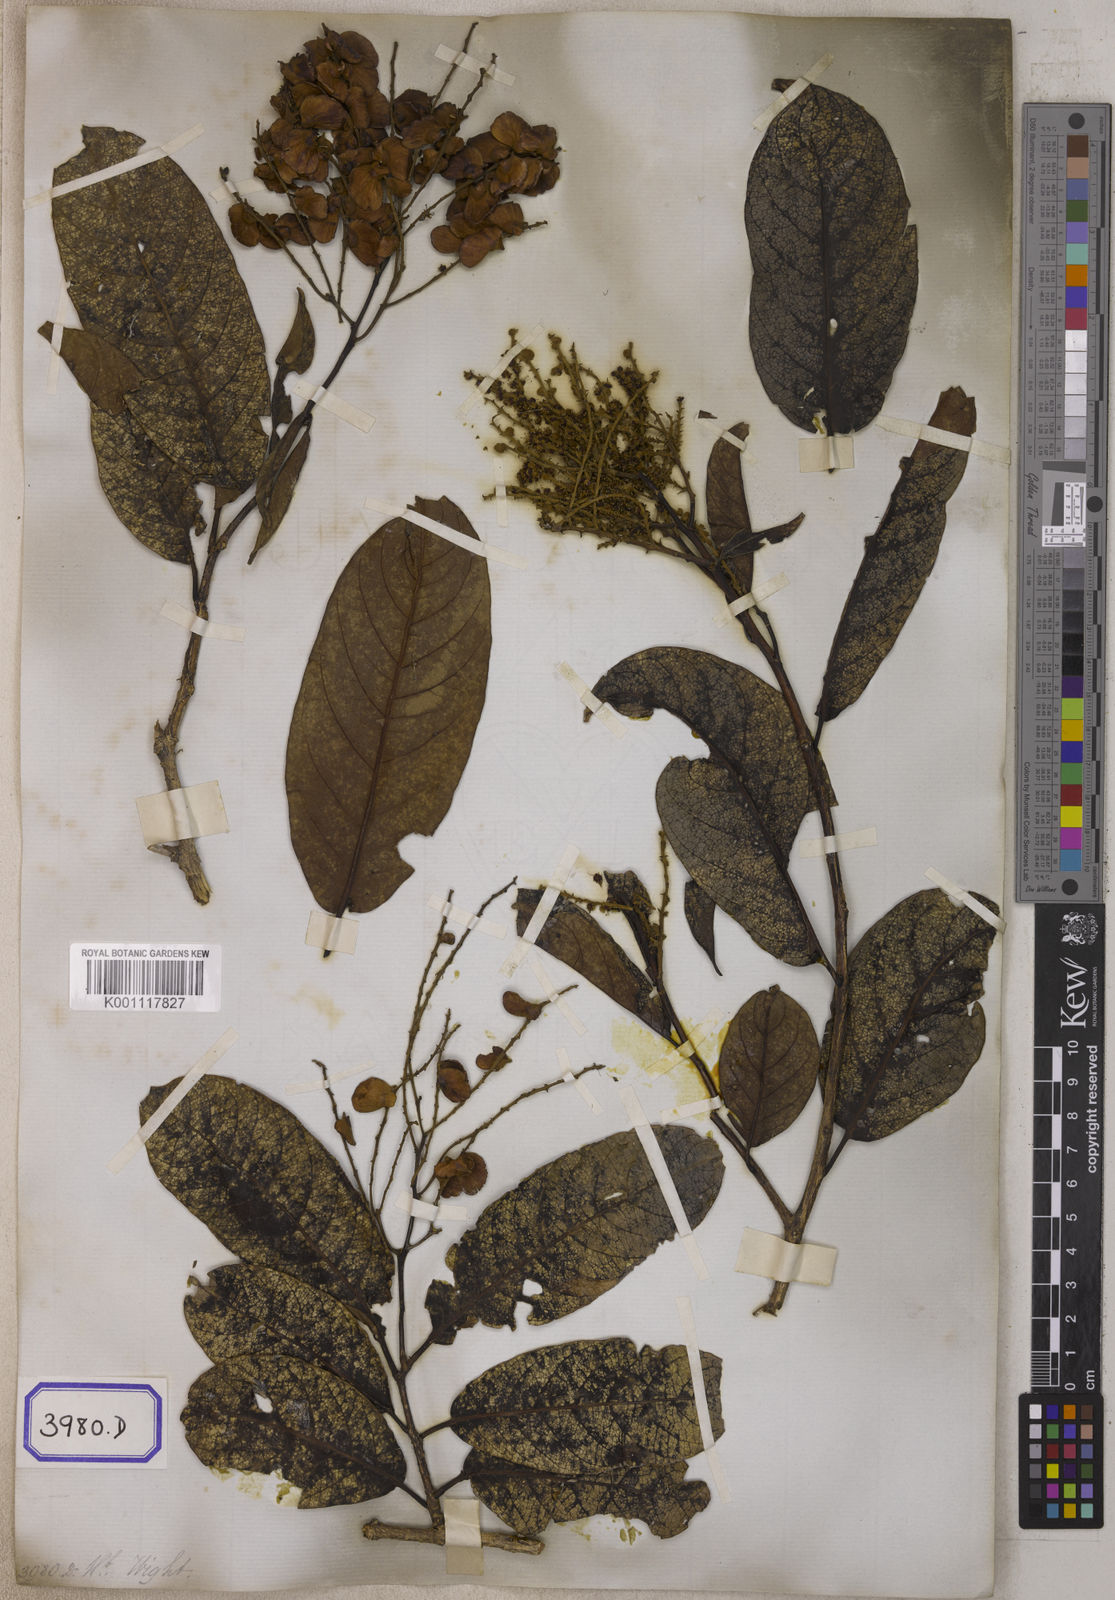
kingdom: Plantae
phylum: Tracheophyta
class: Magnoliopsida
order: Myrtales
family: Combretaceae
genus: Terminalia
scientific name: Terminalia
